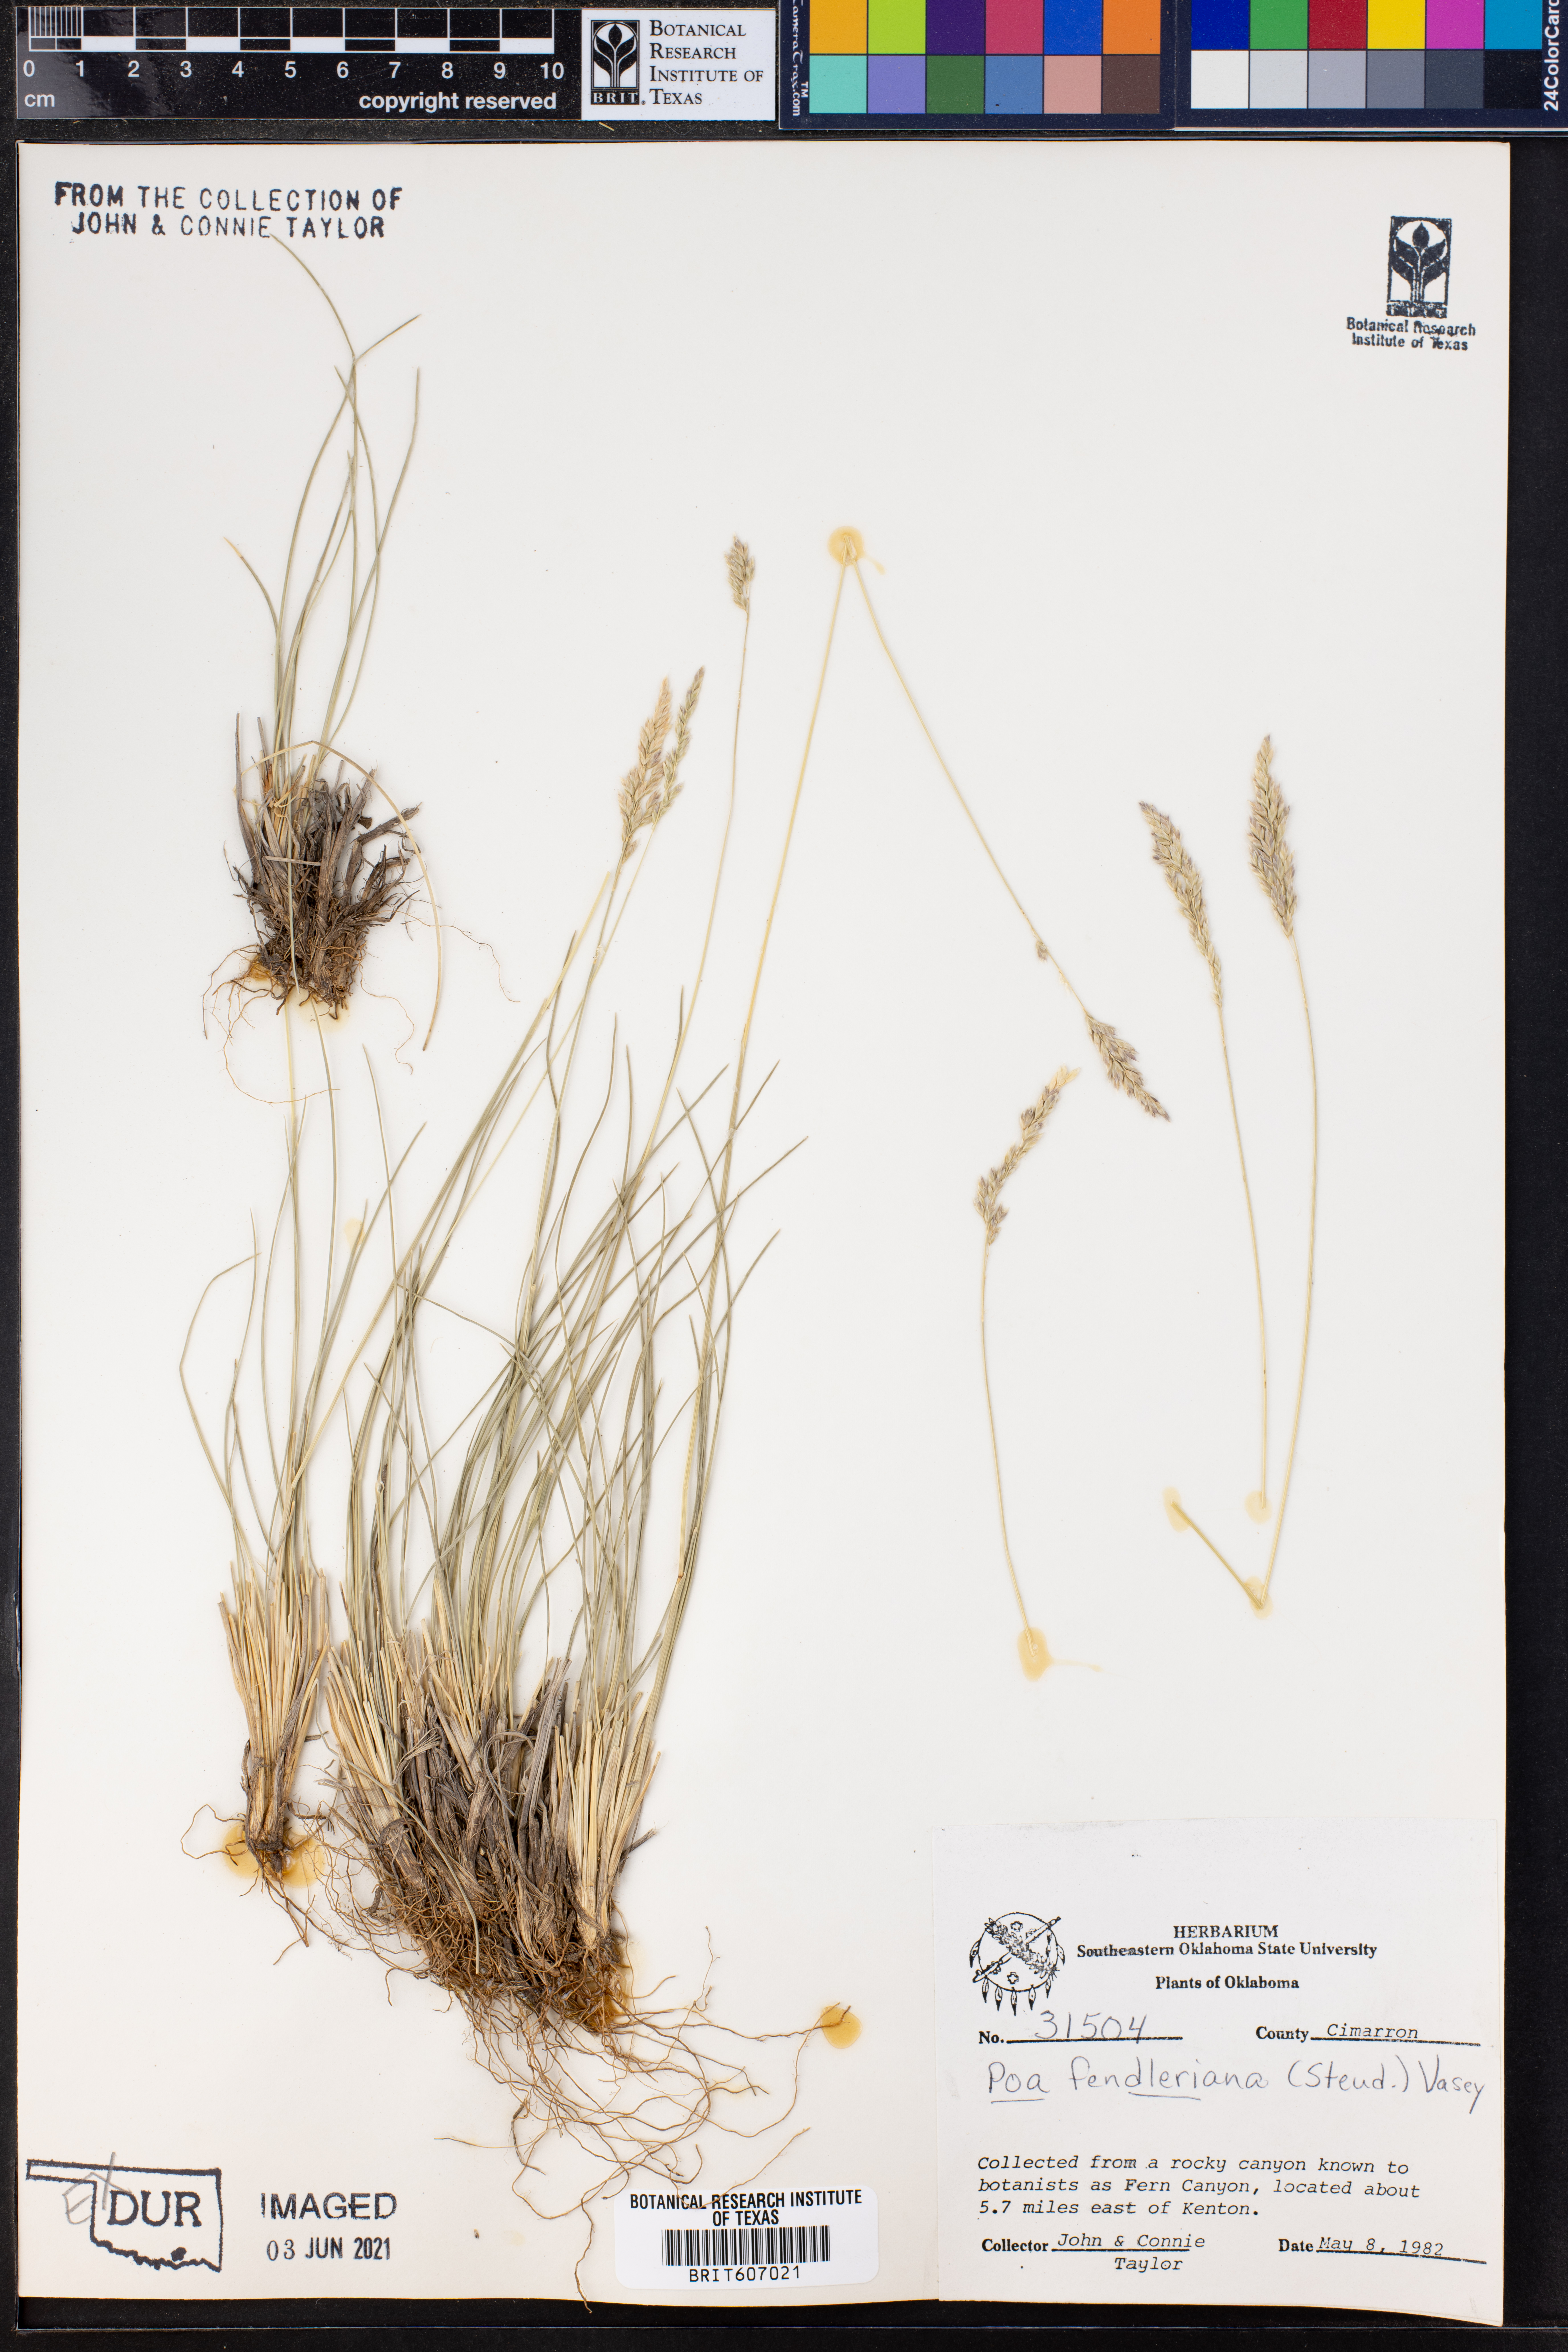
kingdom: Plantae
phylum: Tracheophyta
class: Liliopsida
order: Poales
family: Poaceae
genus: Poa
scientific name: Poa fendleriana
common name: Mutton bluegrass
